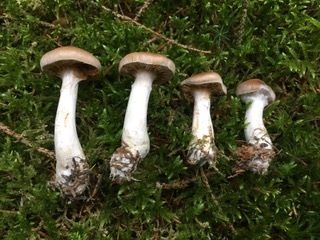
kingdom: Fungi
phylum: Basidiomycota
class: Agaricomycetes
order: Agaricales
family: Cortinariaceae
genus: Cortinarius
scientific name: Cortinarius kauffmanianus
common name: plantage-slørhat
